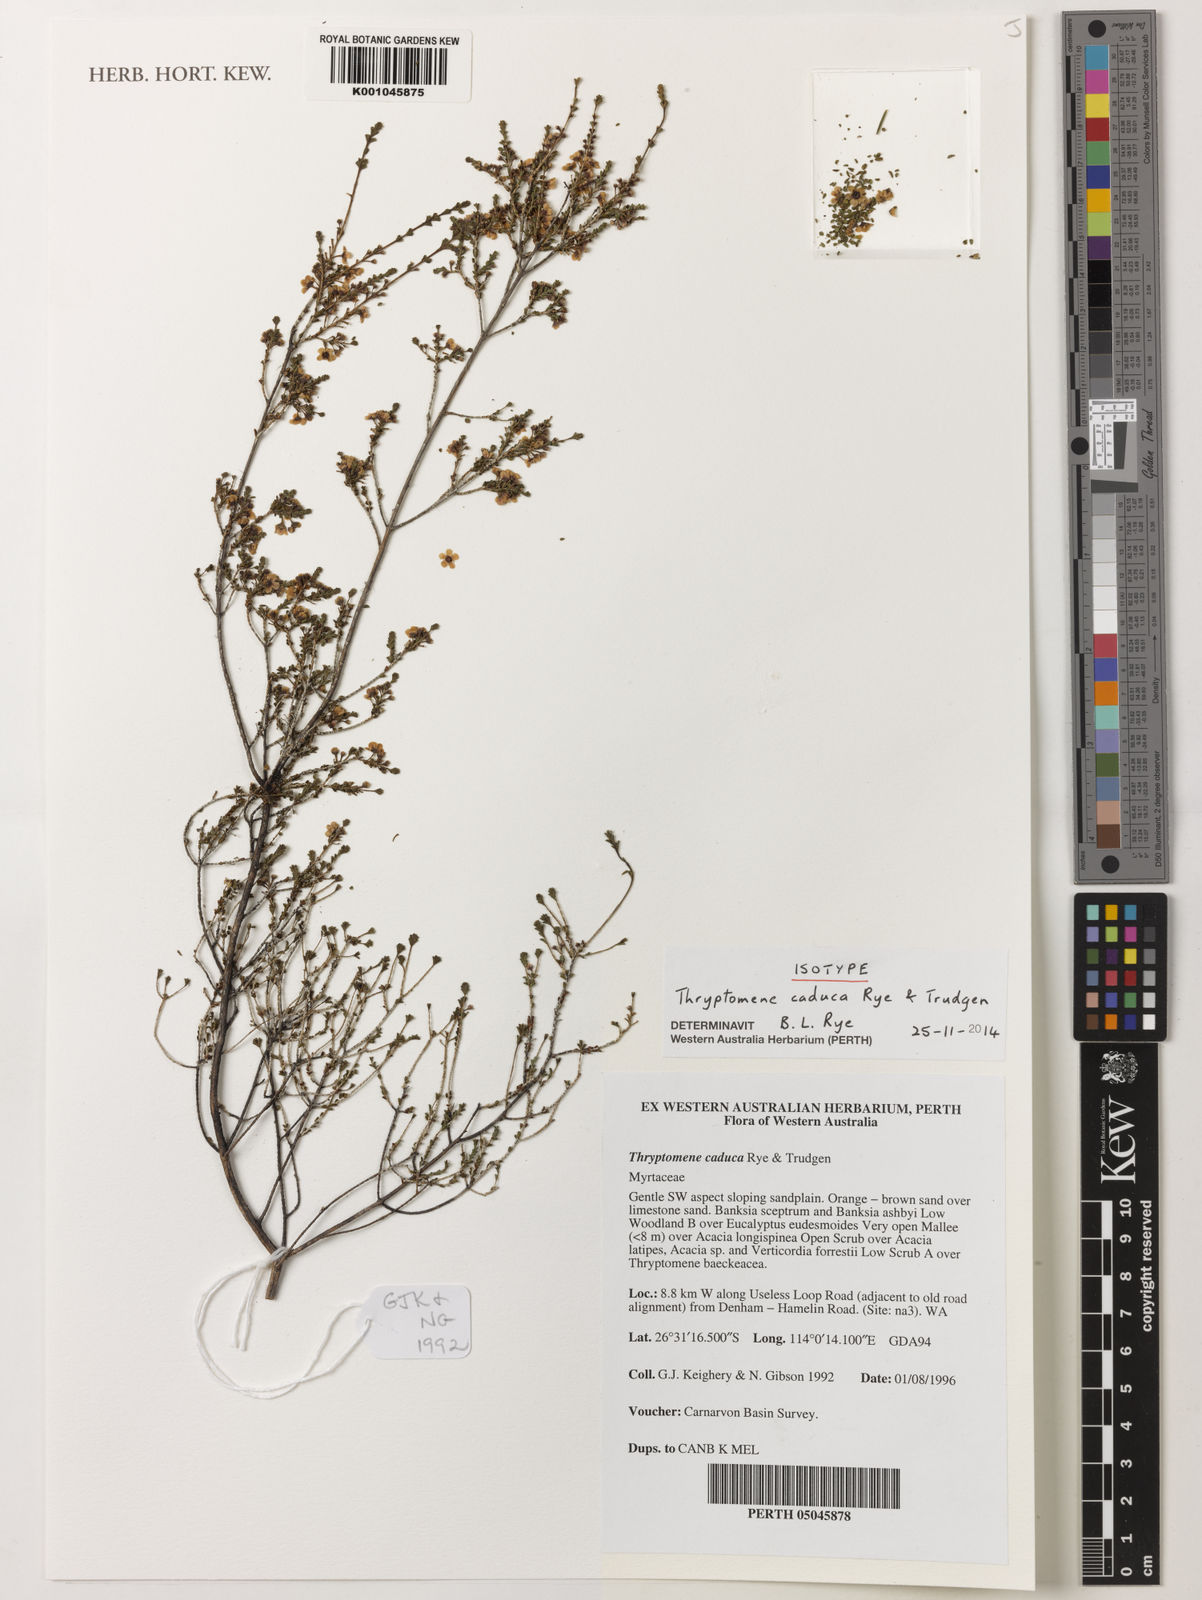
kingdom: Plantae
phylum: Tracheophyta
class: Magnoliopsida
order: Myrtales
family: Myrtaceae
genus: Thryptomene
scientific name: Thryptomene caduca
